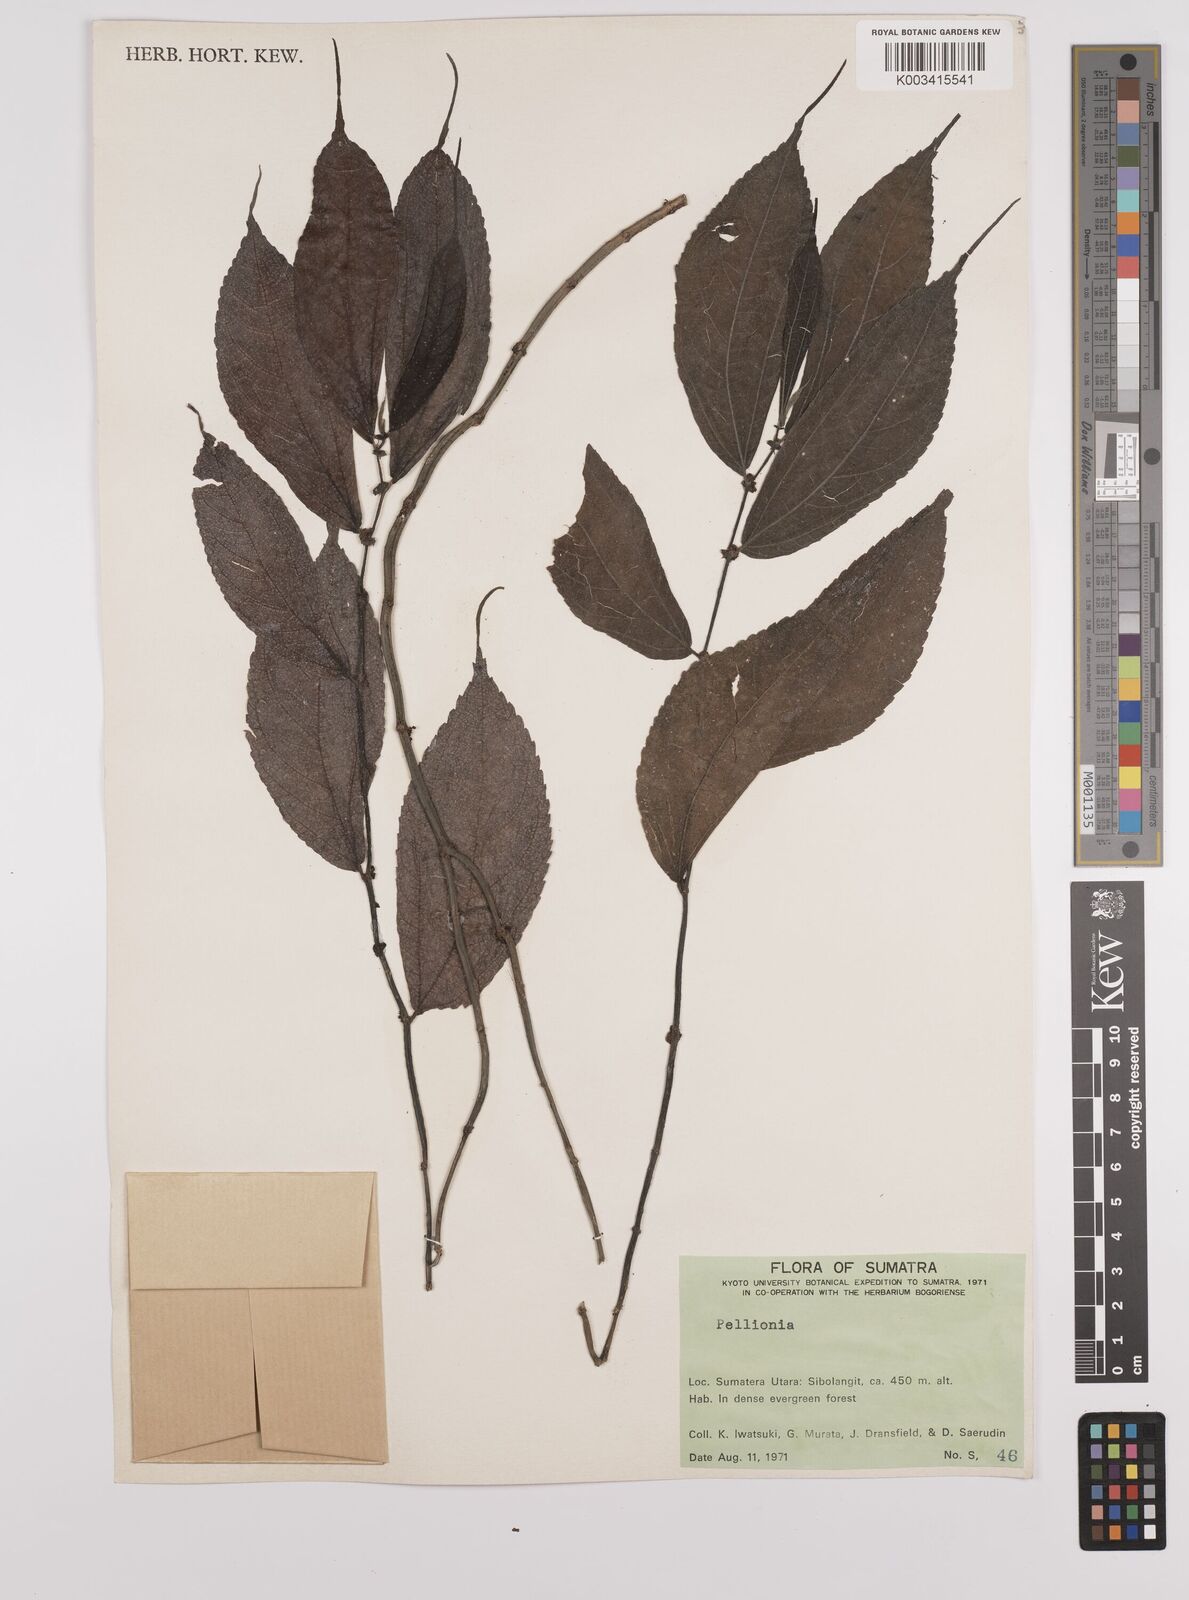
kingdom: Plantae
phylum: Tracheophyta
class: Magnoliopsida
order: Rosales
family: Urticaceae
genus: Elatostema
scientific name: Elatostema
